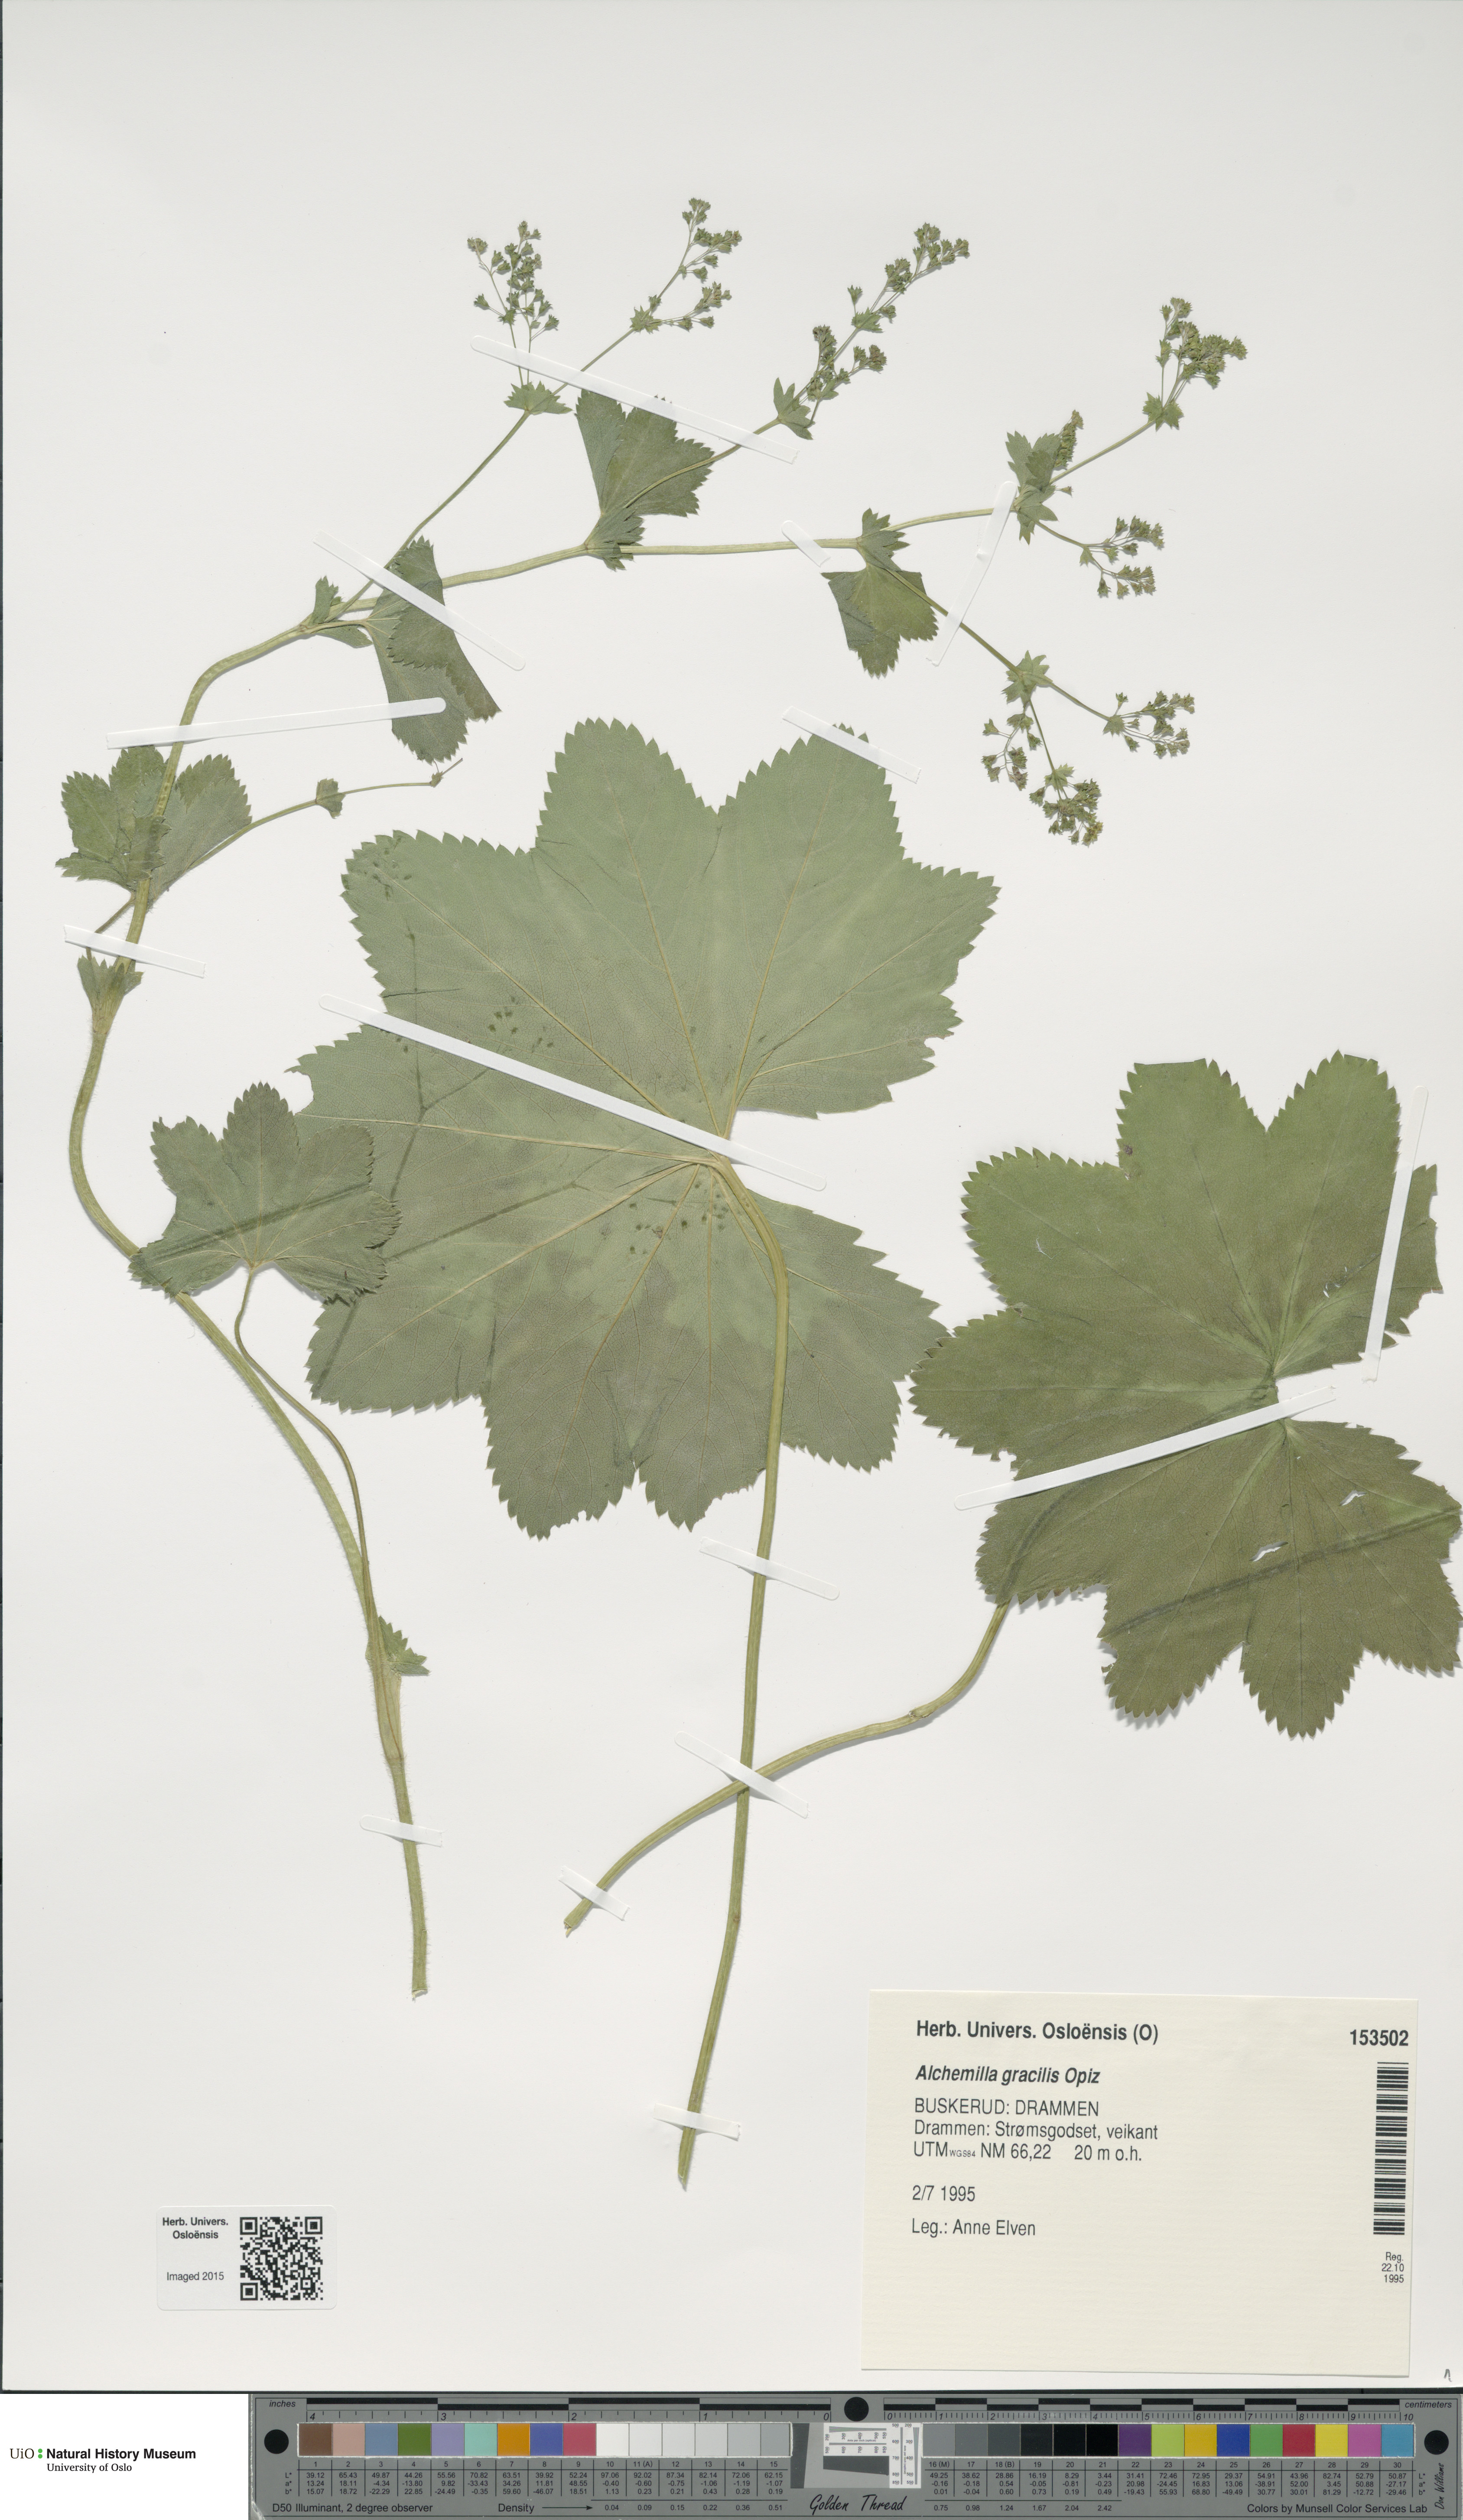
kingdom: Plantae
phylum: Tracheophyta
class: Magnoliopsida
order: Rosales
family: Rosaceae
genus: Alchemilla
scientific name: Alchemilla micans
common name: Gleaming lady's mantle
